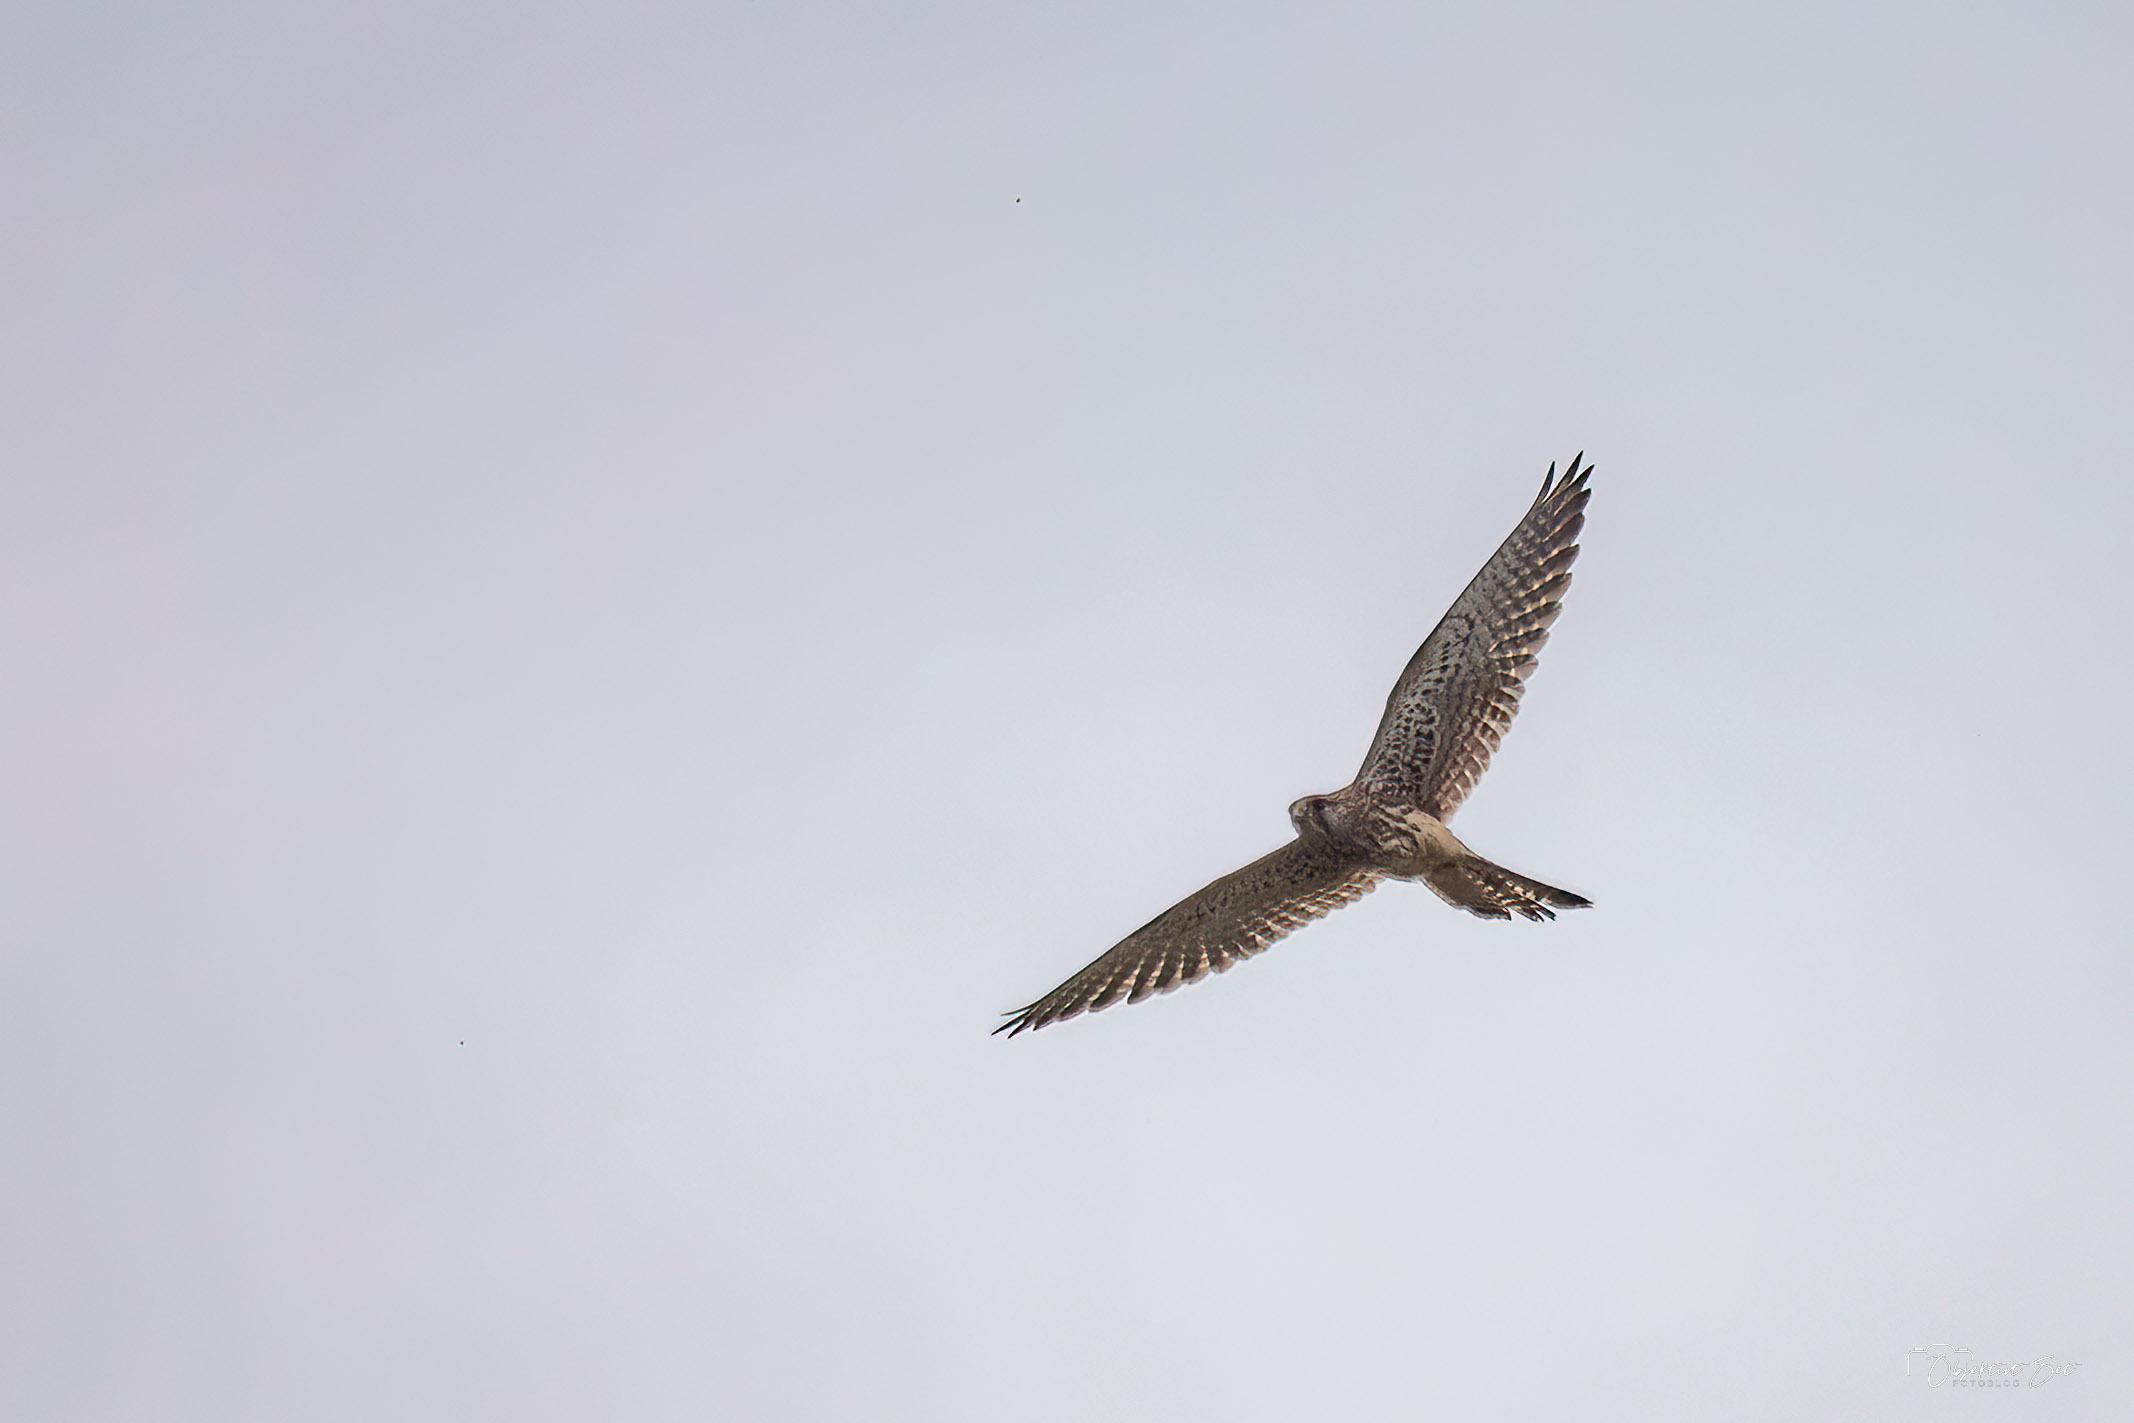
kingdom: Animalia
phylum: Chordata
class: Aves
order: Falconiformes
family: Falconidae
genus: Falco
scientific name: Falco tinnunculus
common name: Tårnfalk
